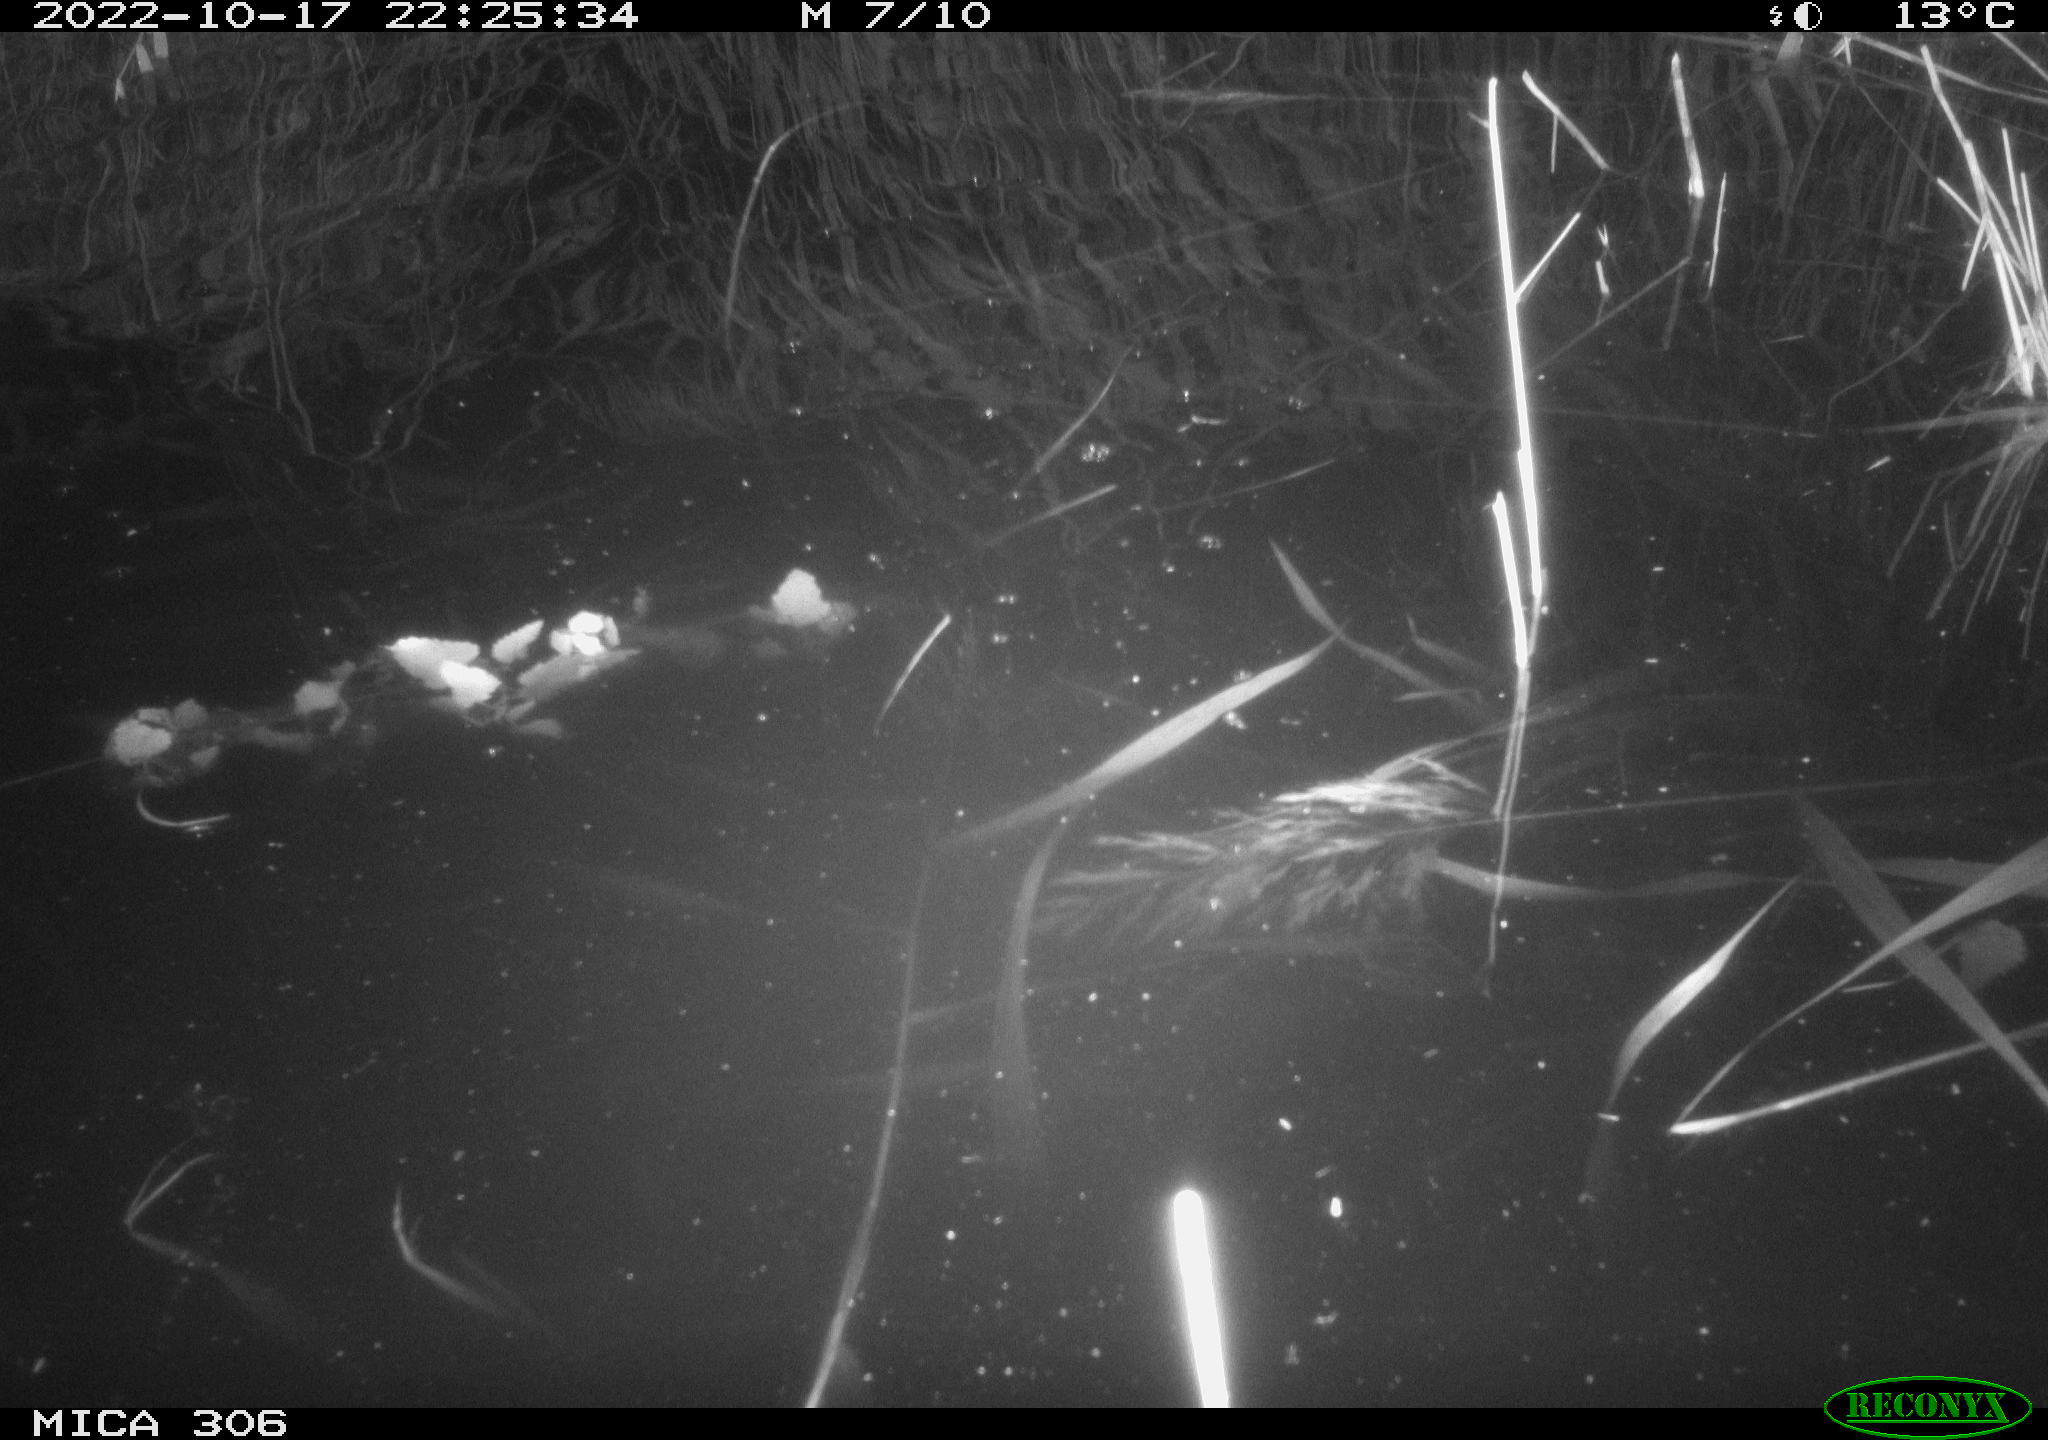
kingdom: Animalia
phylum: Chordata
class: Mammalia
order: Rodentia
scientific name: Rodentia
